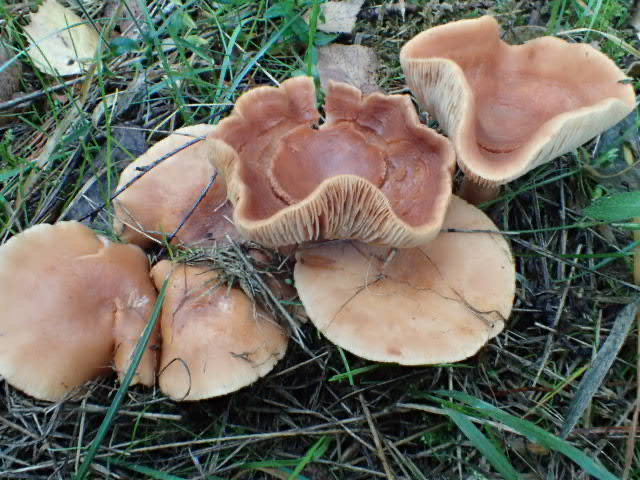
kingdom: Fungi
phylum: Basidiomycota
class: Agaricomycetes
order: Agaricales
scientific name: Agaricales
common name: champignonordenen
